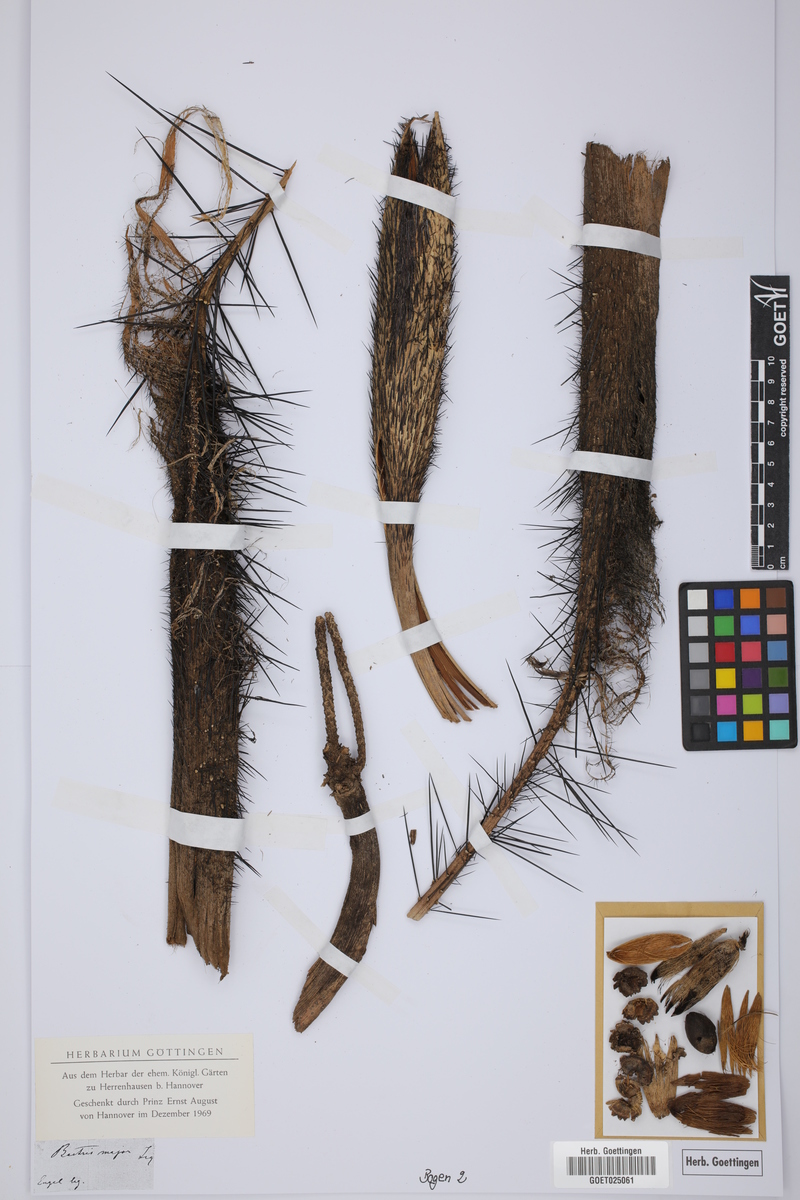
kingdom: Plantae
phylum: Tracheophyta
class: Liliopsida
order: Arecales
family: Arecaceae
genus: Bactris
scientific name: Bactris major
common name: Beach palm
